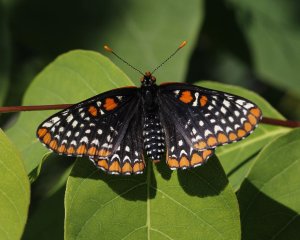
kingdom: Animalia
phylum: Arthropoda
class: Insecta
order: Lepidoptera
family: Nymphalidae
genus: Euphydryas
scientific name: Euphydryas phaeton
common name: Baltimore Checkerspot
